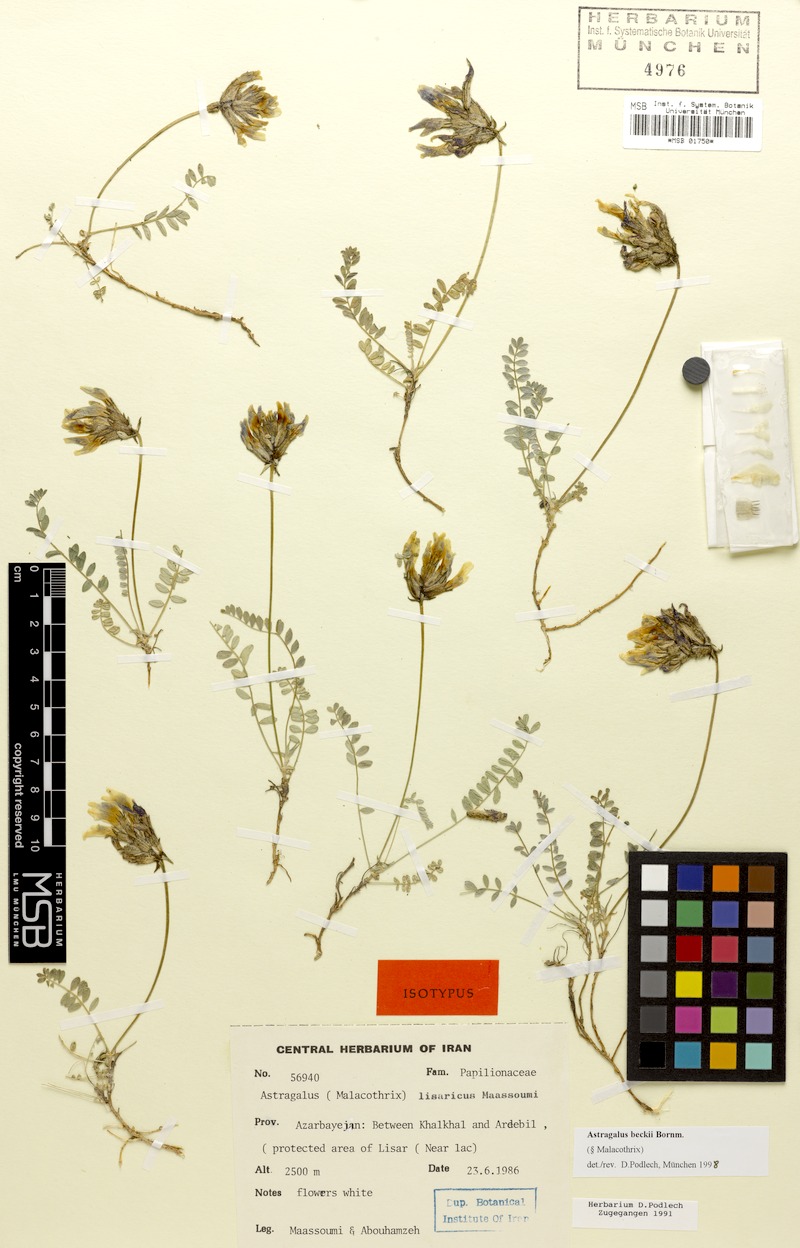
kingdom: Plantae
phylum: Tracheophyta
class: Magnoliopsida
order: Fabales
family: Fabaceae
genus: Astragalus
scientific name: Astragalus beckii
